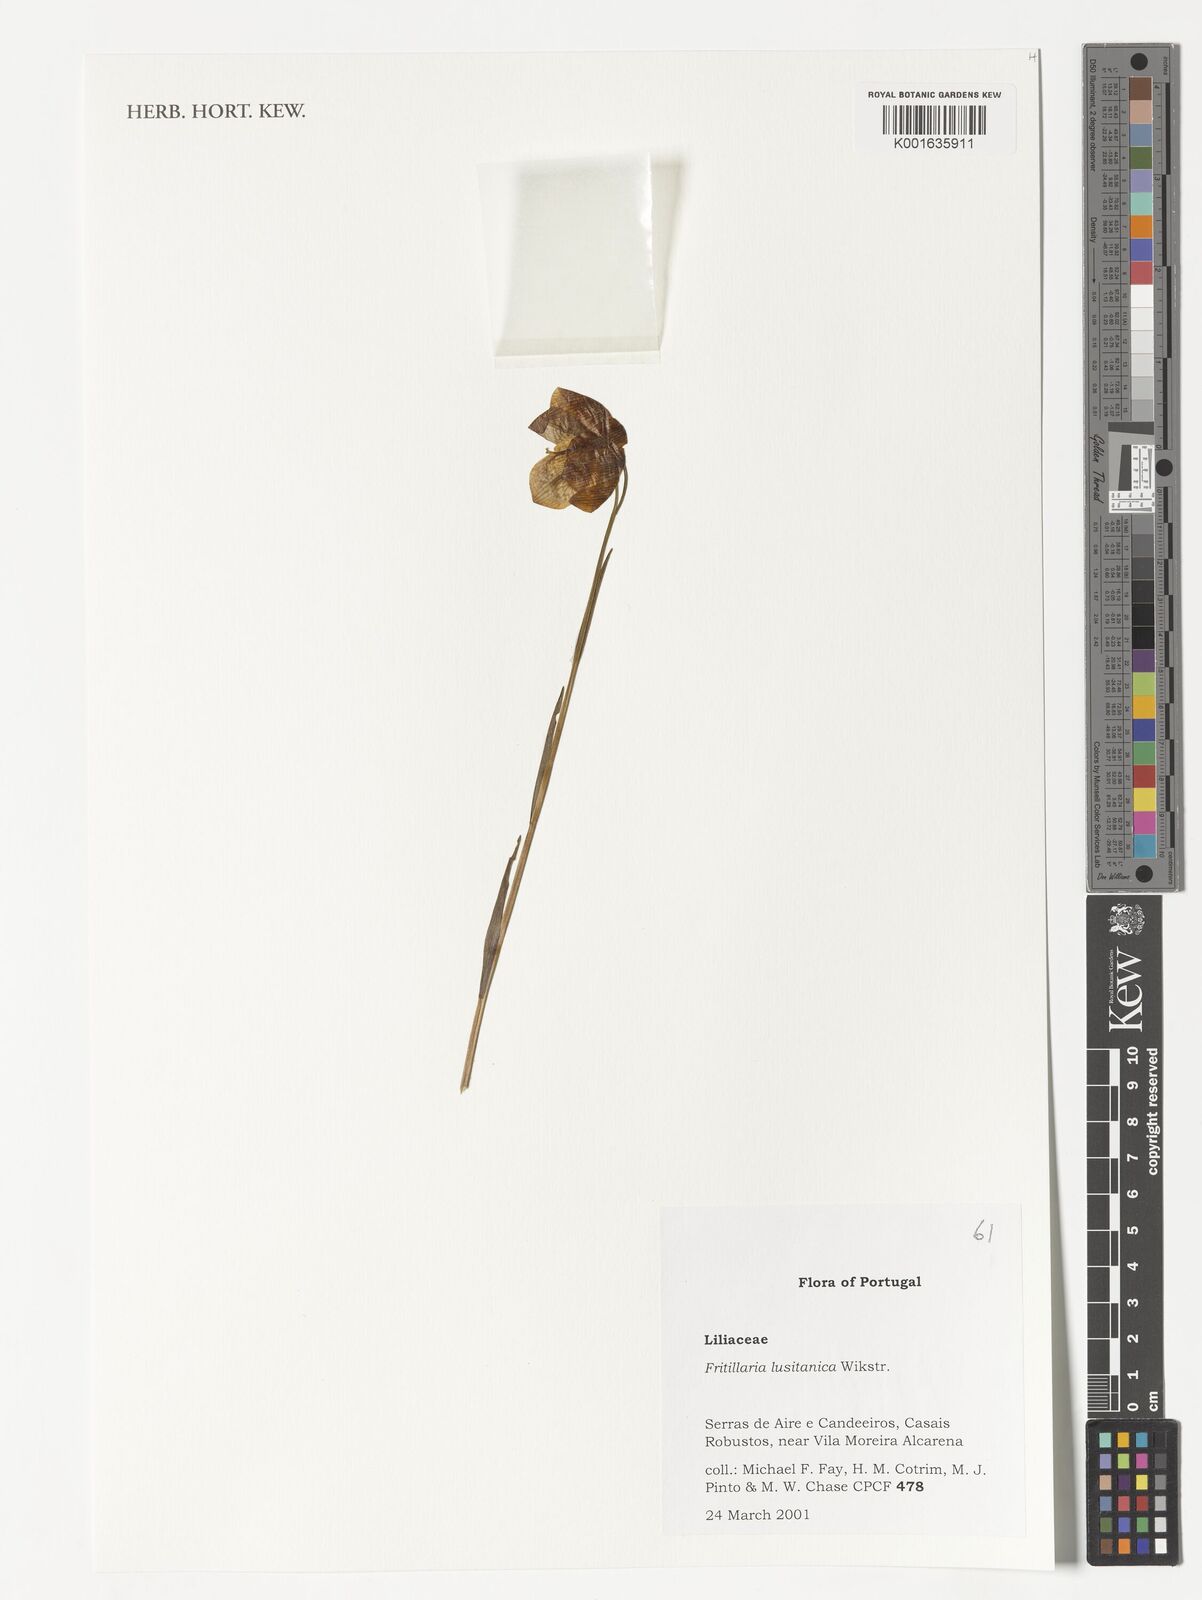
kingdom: Plantae
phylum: Tracheophyta
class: Liliopsida
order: Liliales
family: Liliaceae
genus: Fritillaria
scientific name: Fritillaria lusitanica
